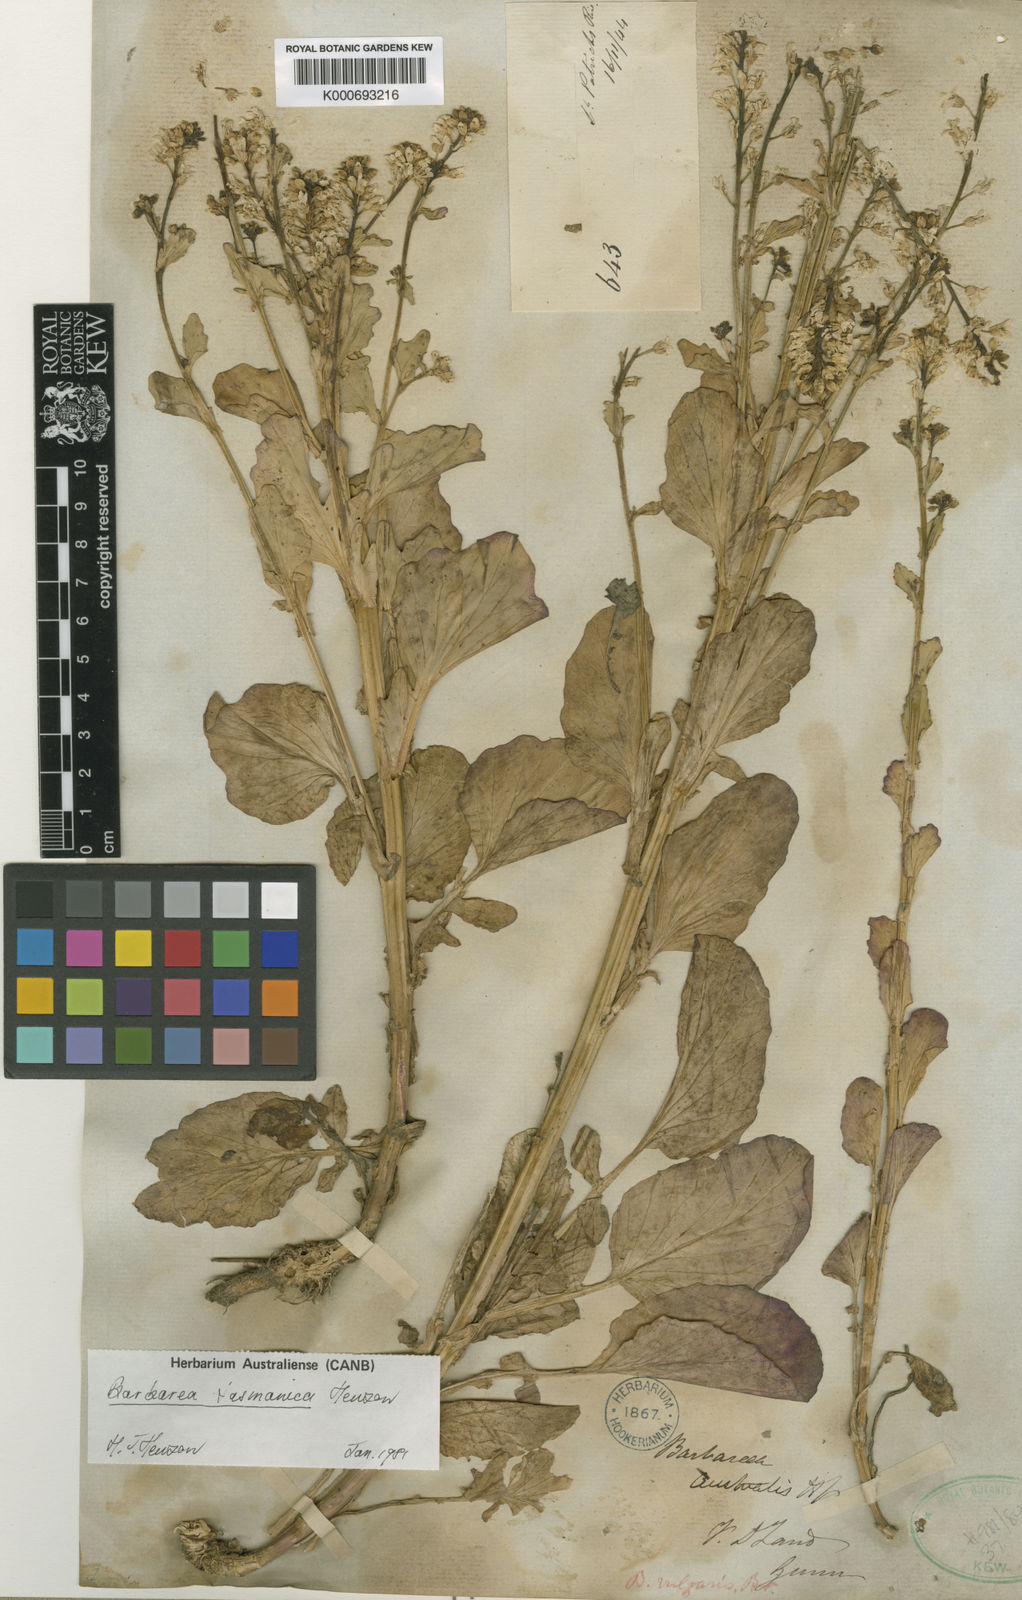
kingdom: Plantae
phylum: Tracheophyta
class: Magnoliopsida
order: Brassicales
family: Brassicaceae
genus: Barbarea
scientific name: Barbarea australis
